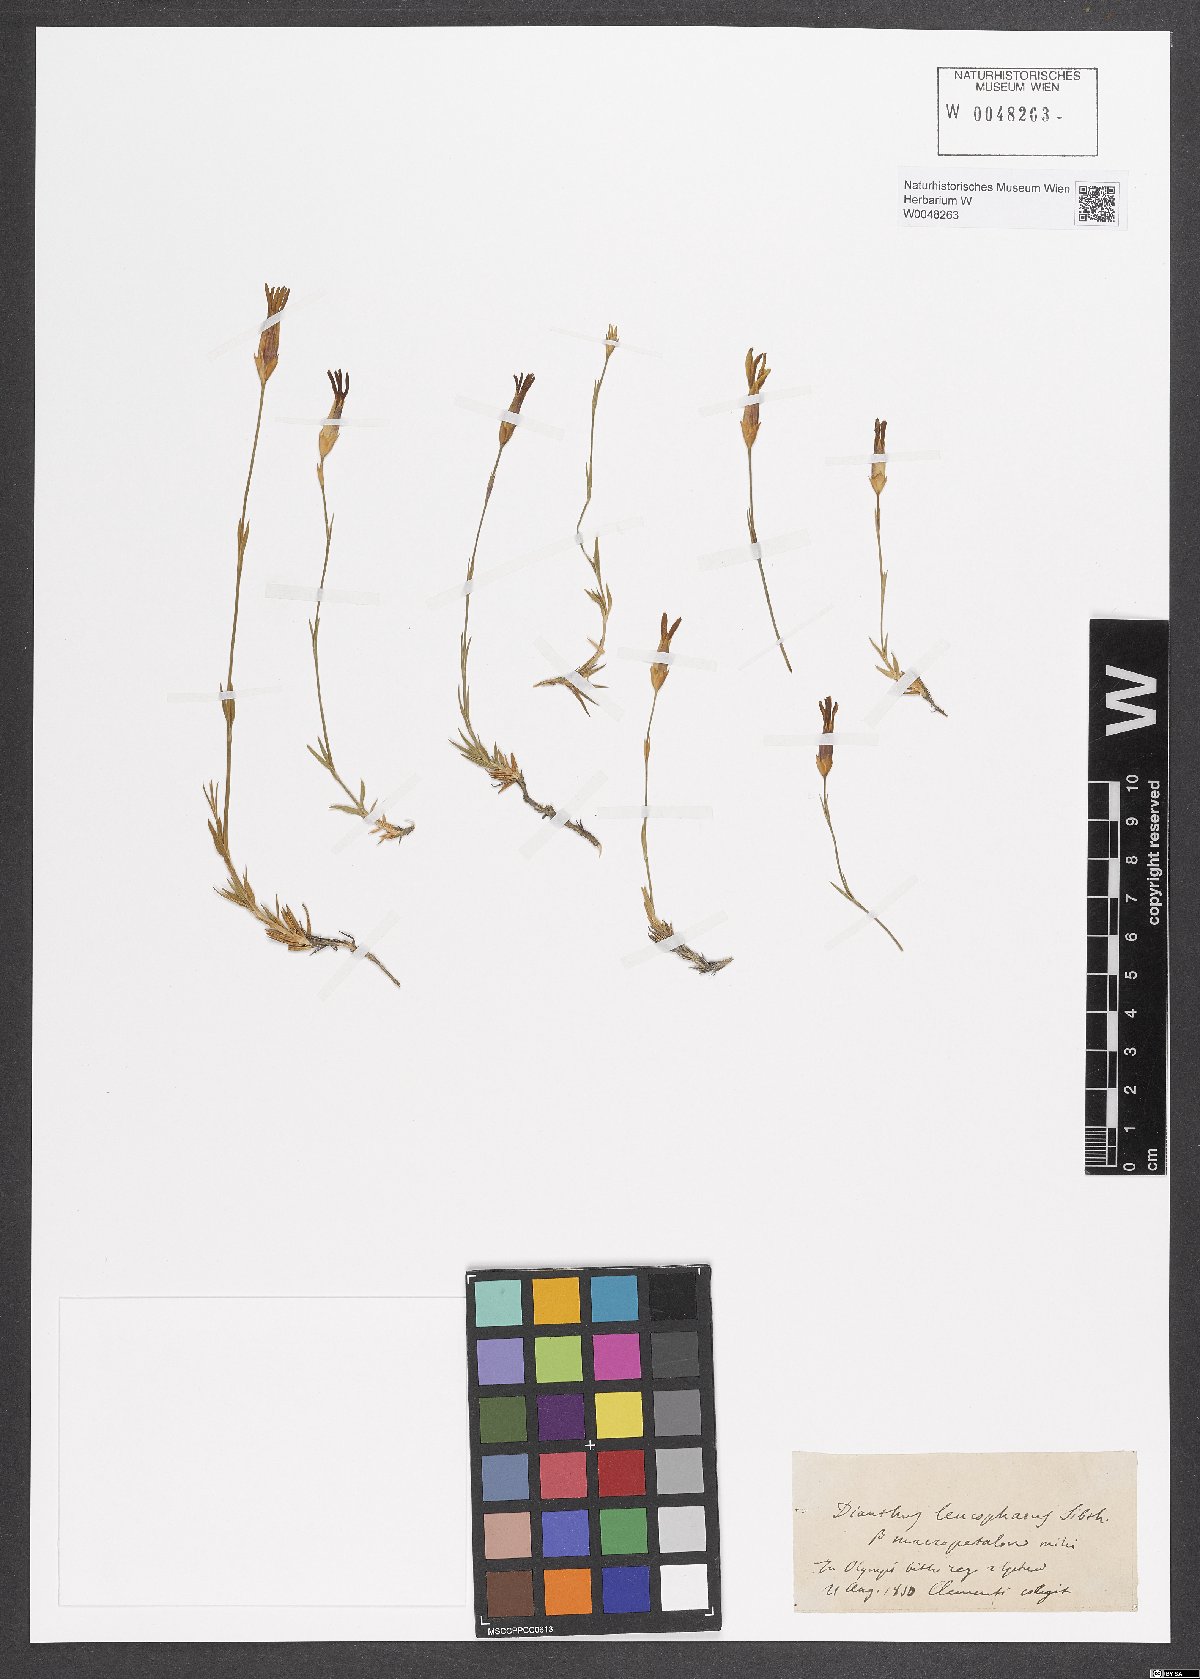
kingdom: Plantae
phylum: Tracheophyta
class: Magnoliopsida
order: Caryophyllales
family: Caryophyllaceae
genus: Dianthus
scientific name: Dianthus leucophaeus
